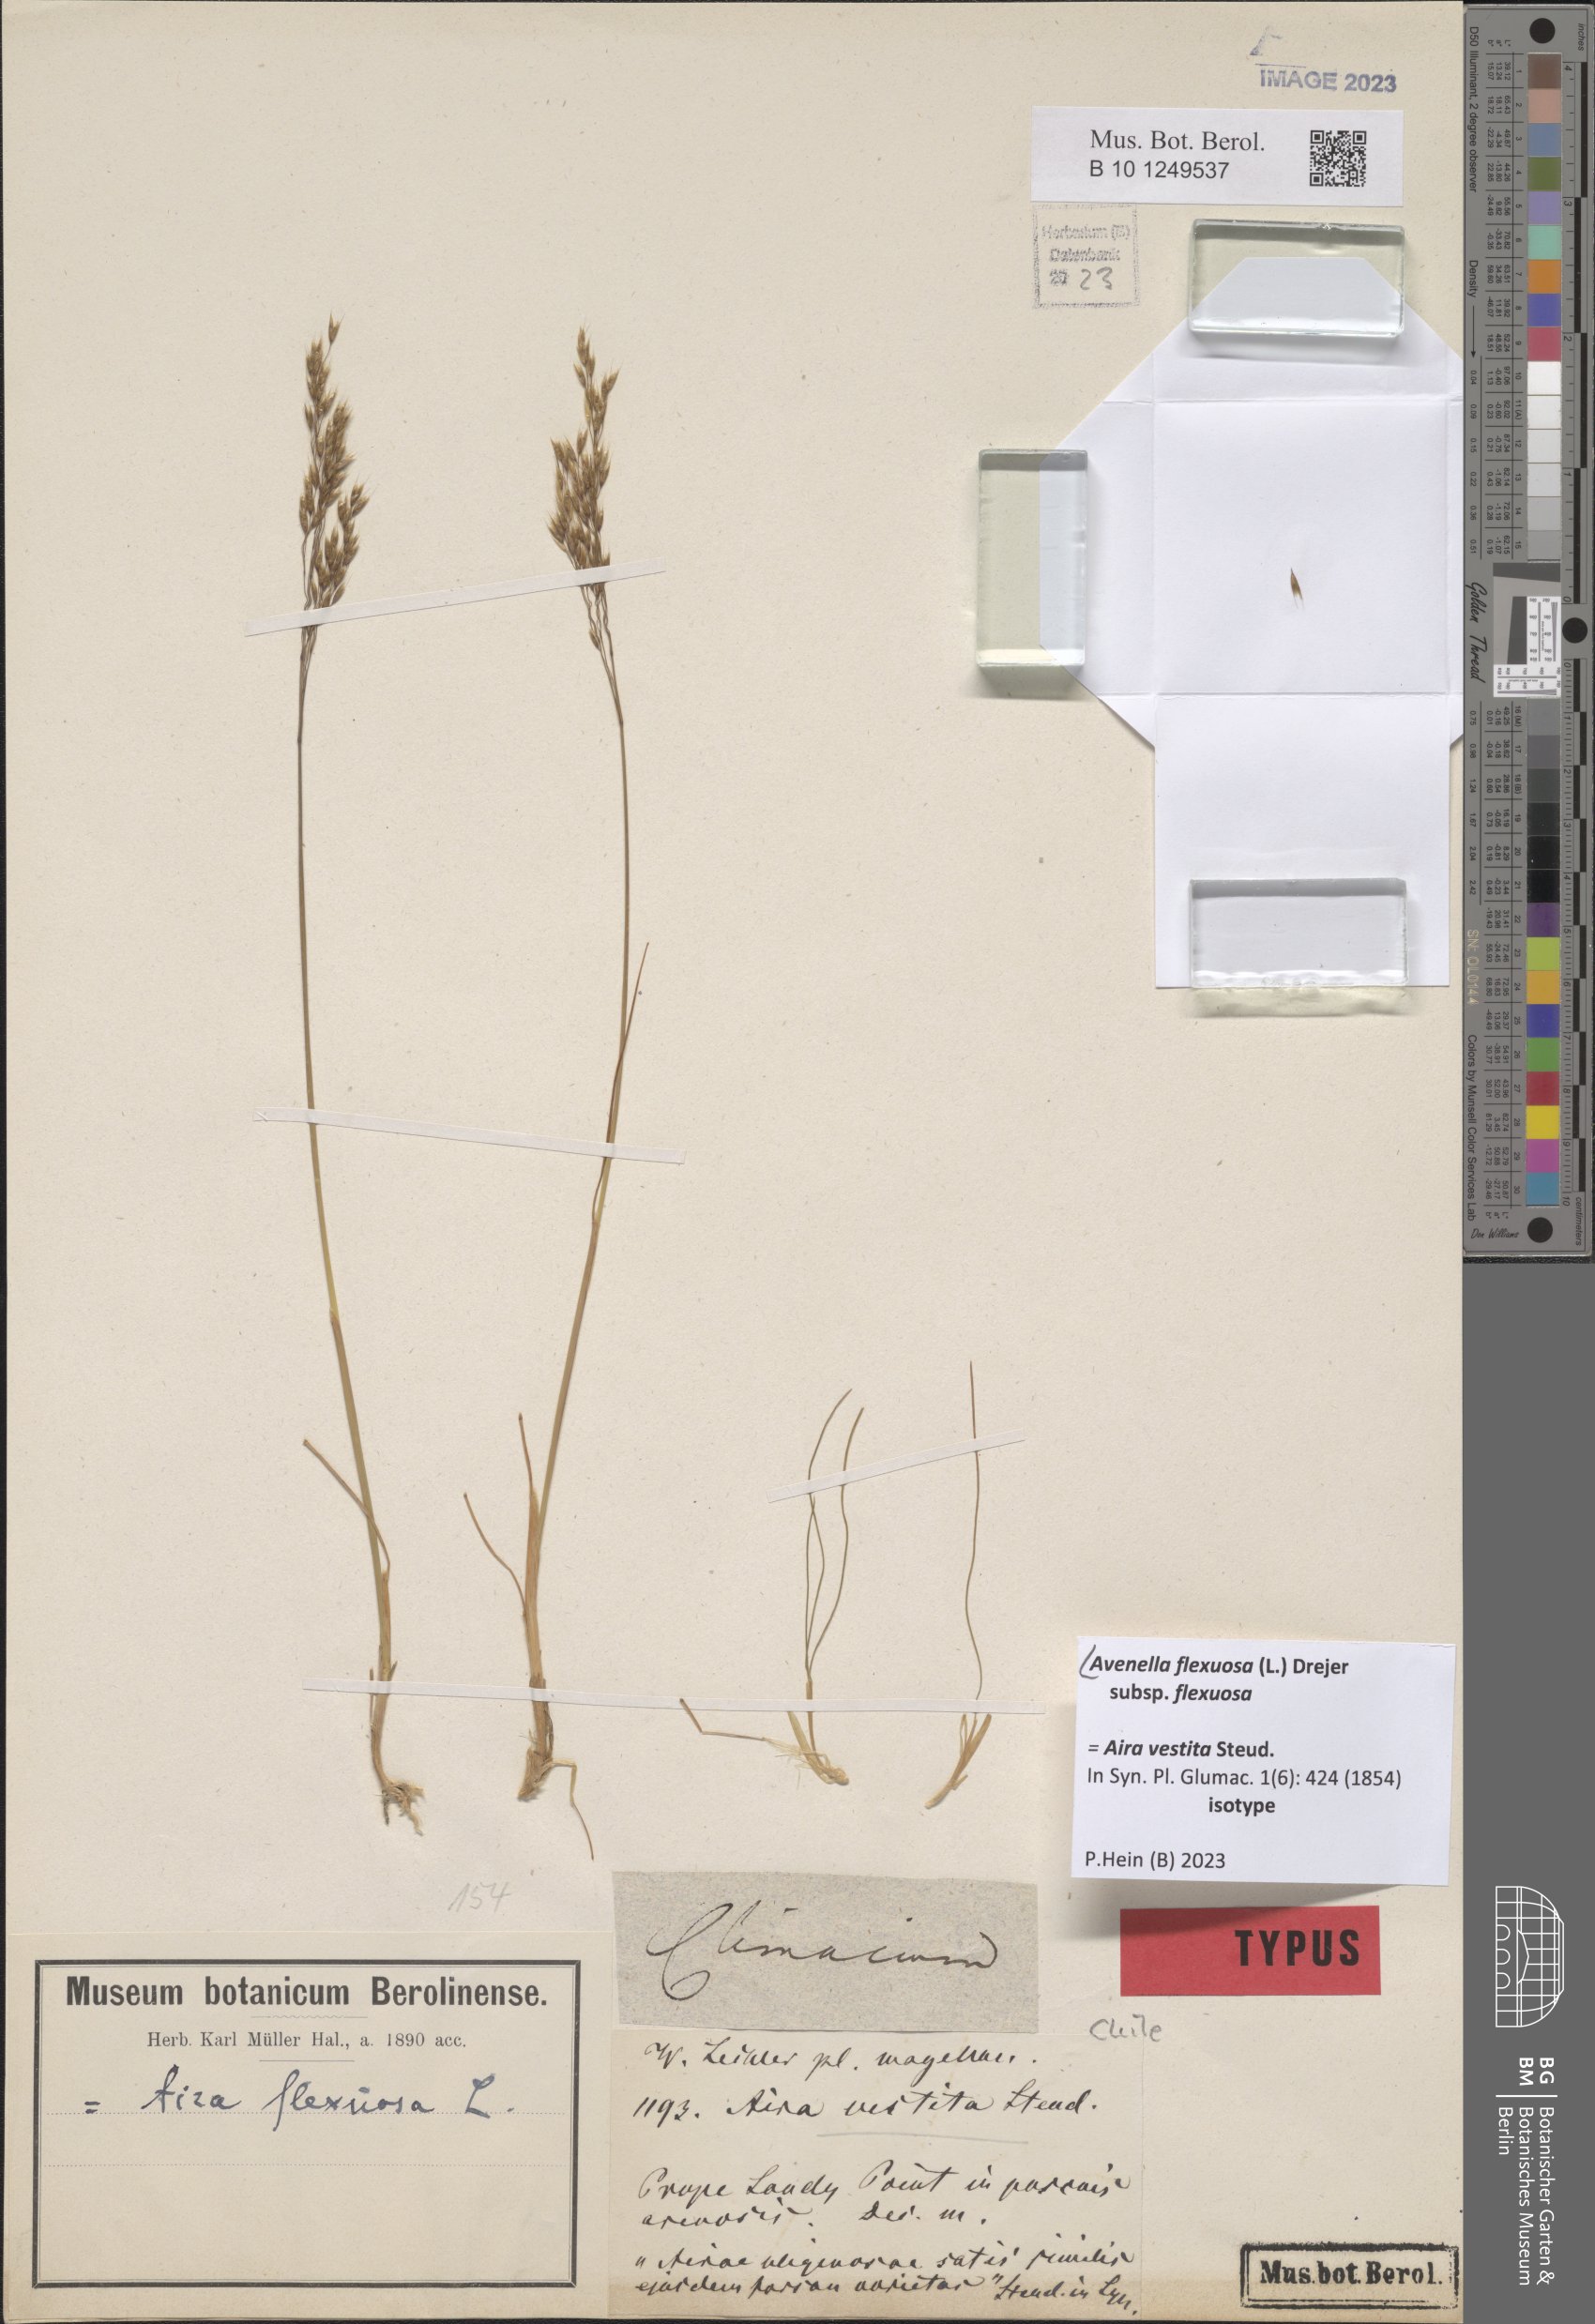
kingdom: Plantae
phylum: Tracheophyta
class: Liliopsida
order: Poales
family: Poaceae
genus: Avenella
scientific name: Avenella flexuosa
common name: Wavy hairgrass
